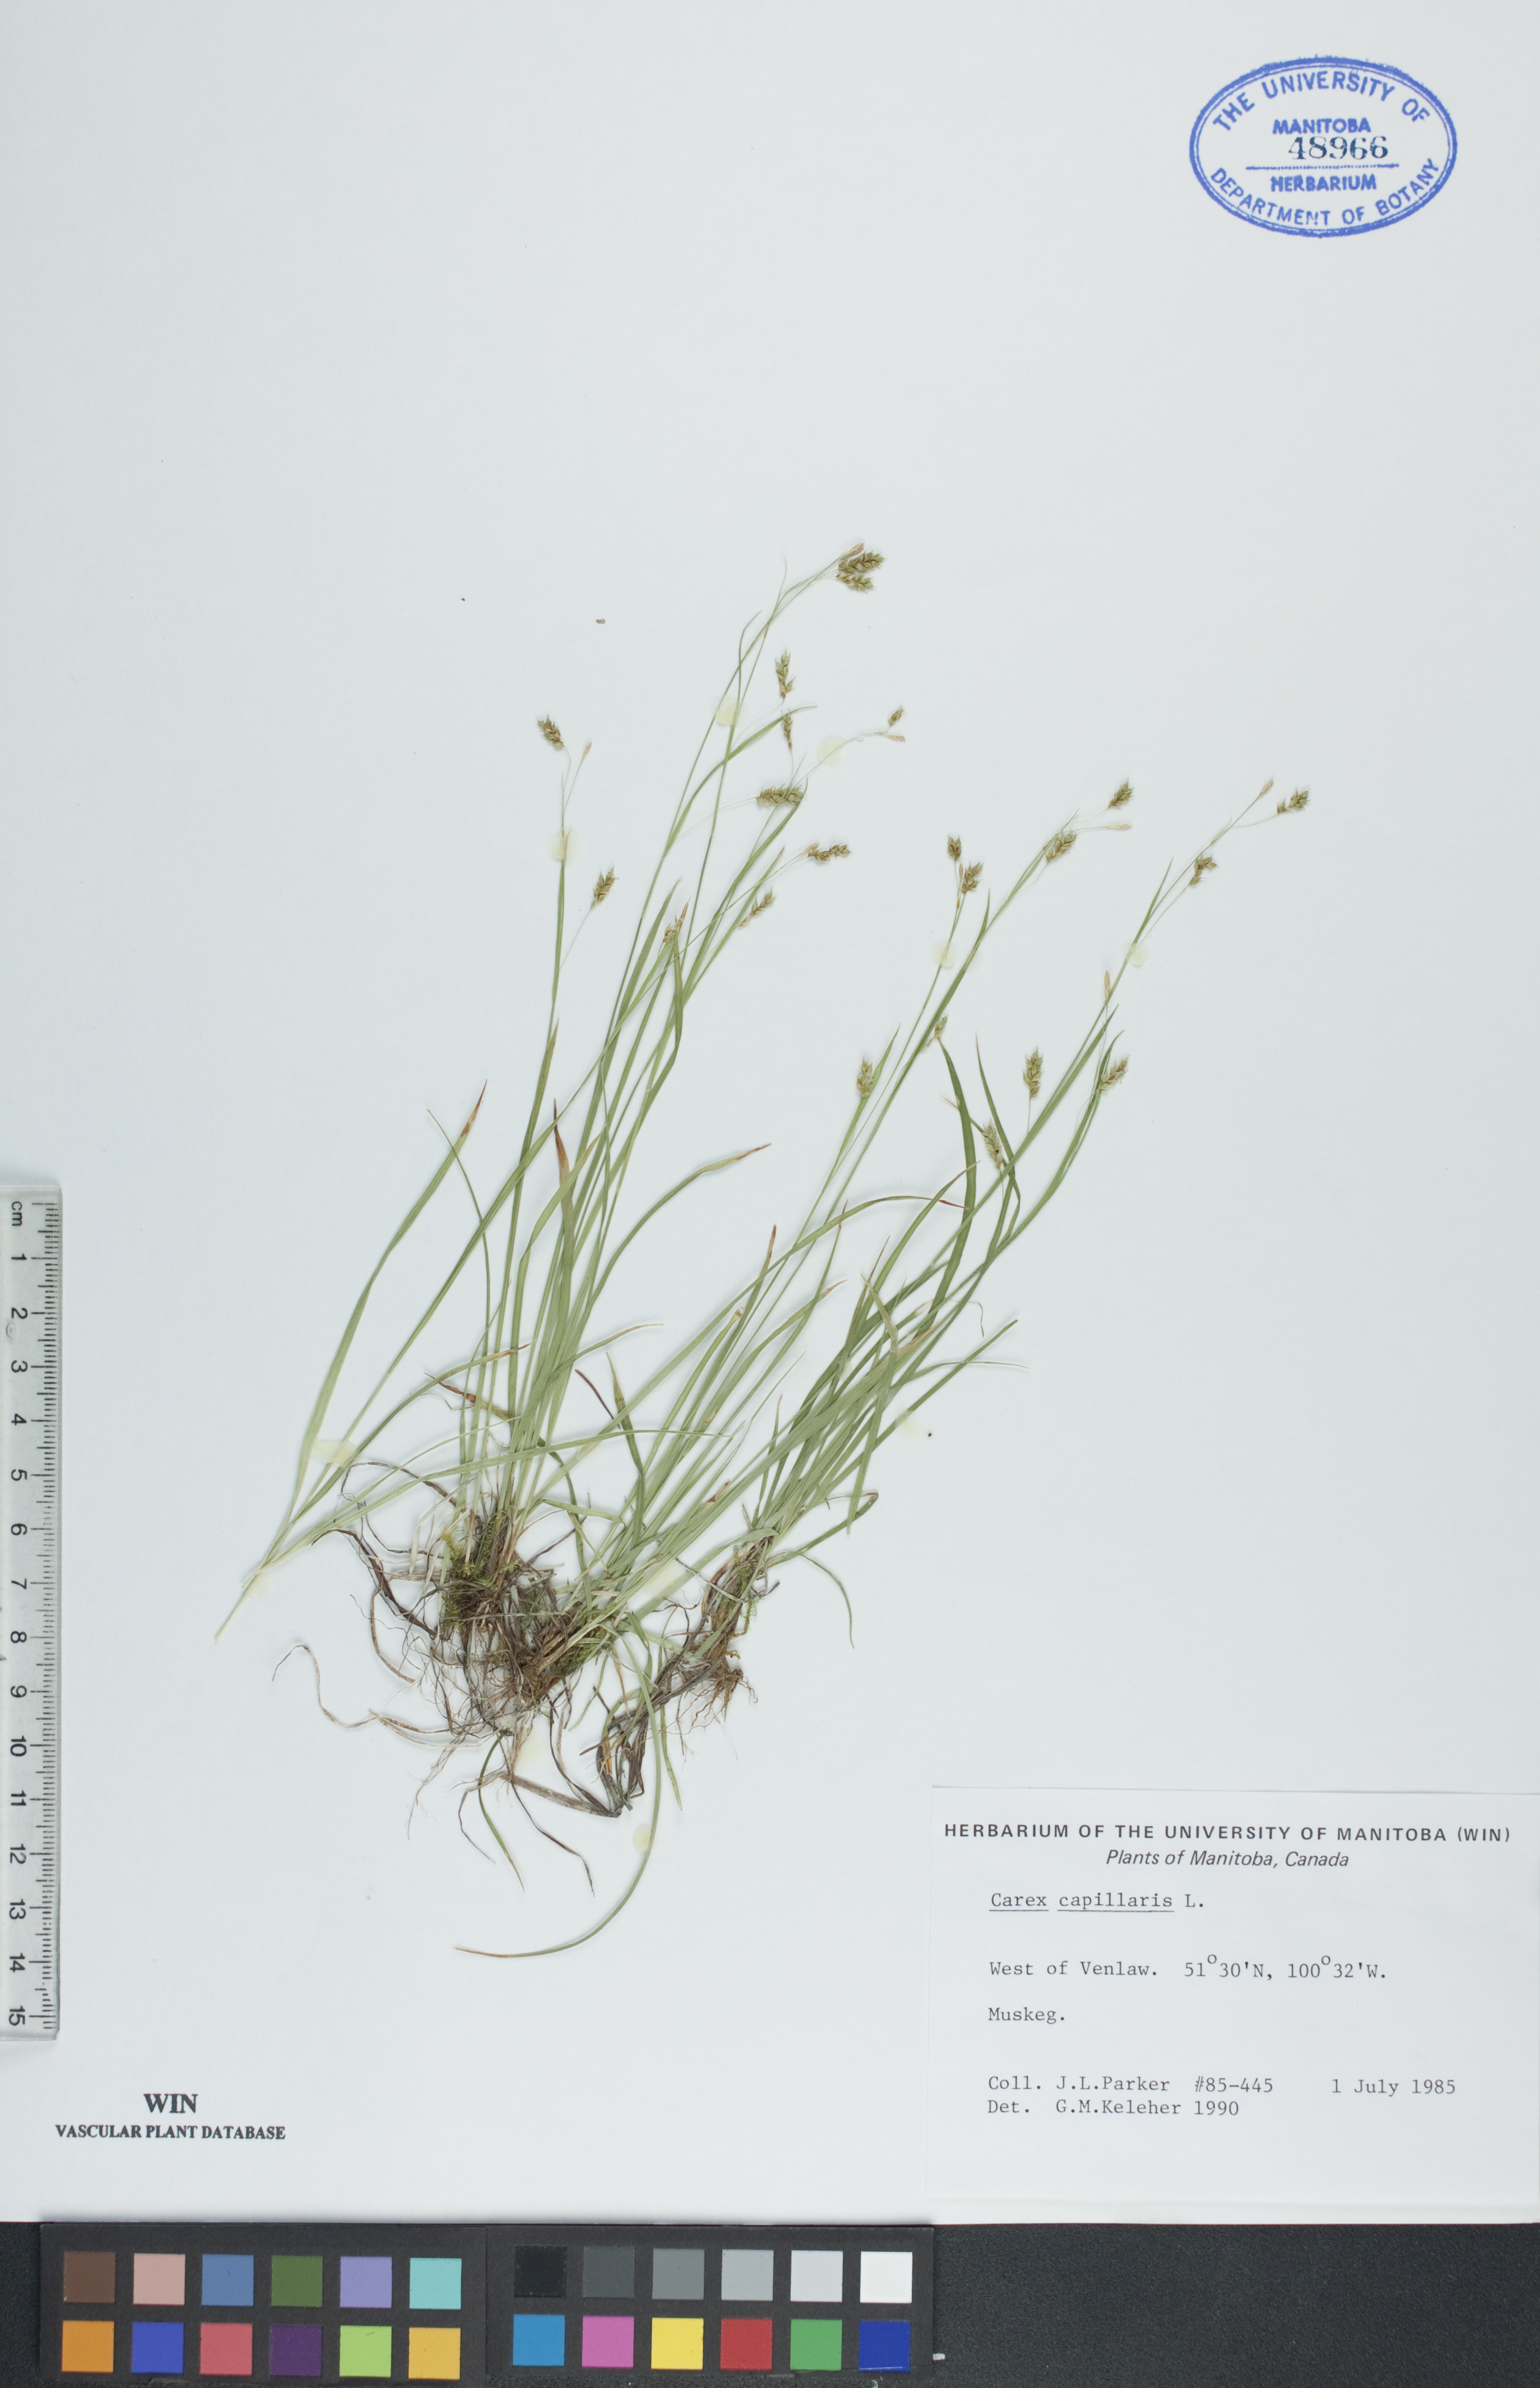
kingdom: Plantae
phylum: Tracheophyta
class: Liliopsida
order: Poales
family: Cyperaceae
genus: Carex
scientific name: Carex capillaris
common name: Hair sedge
